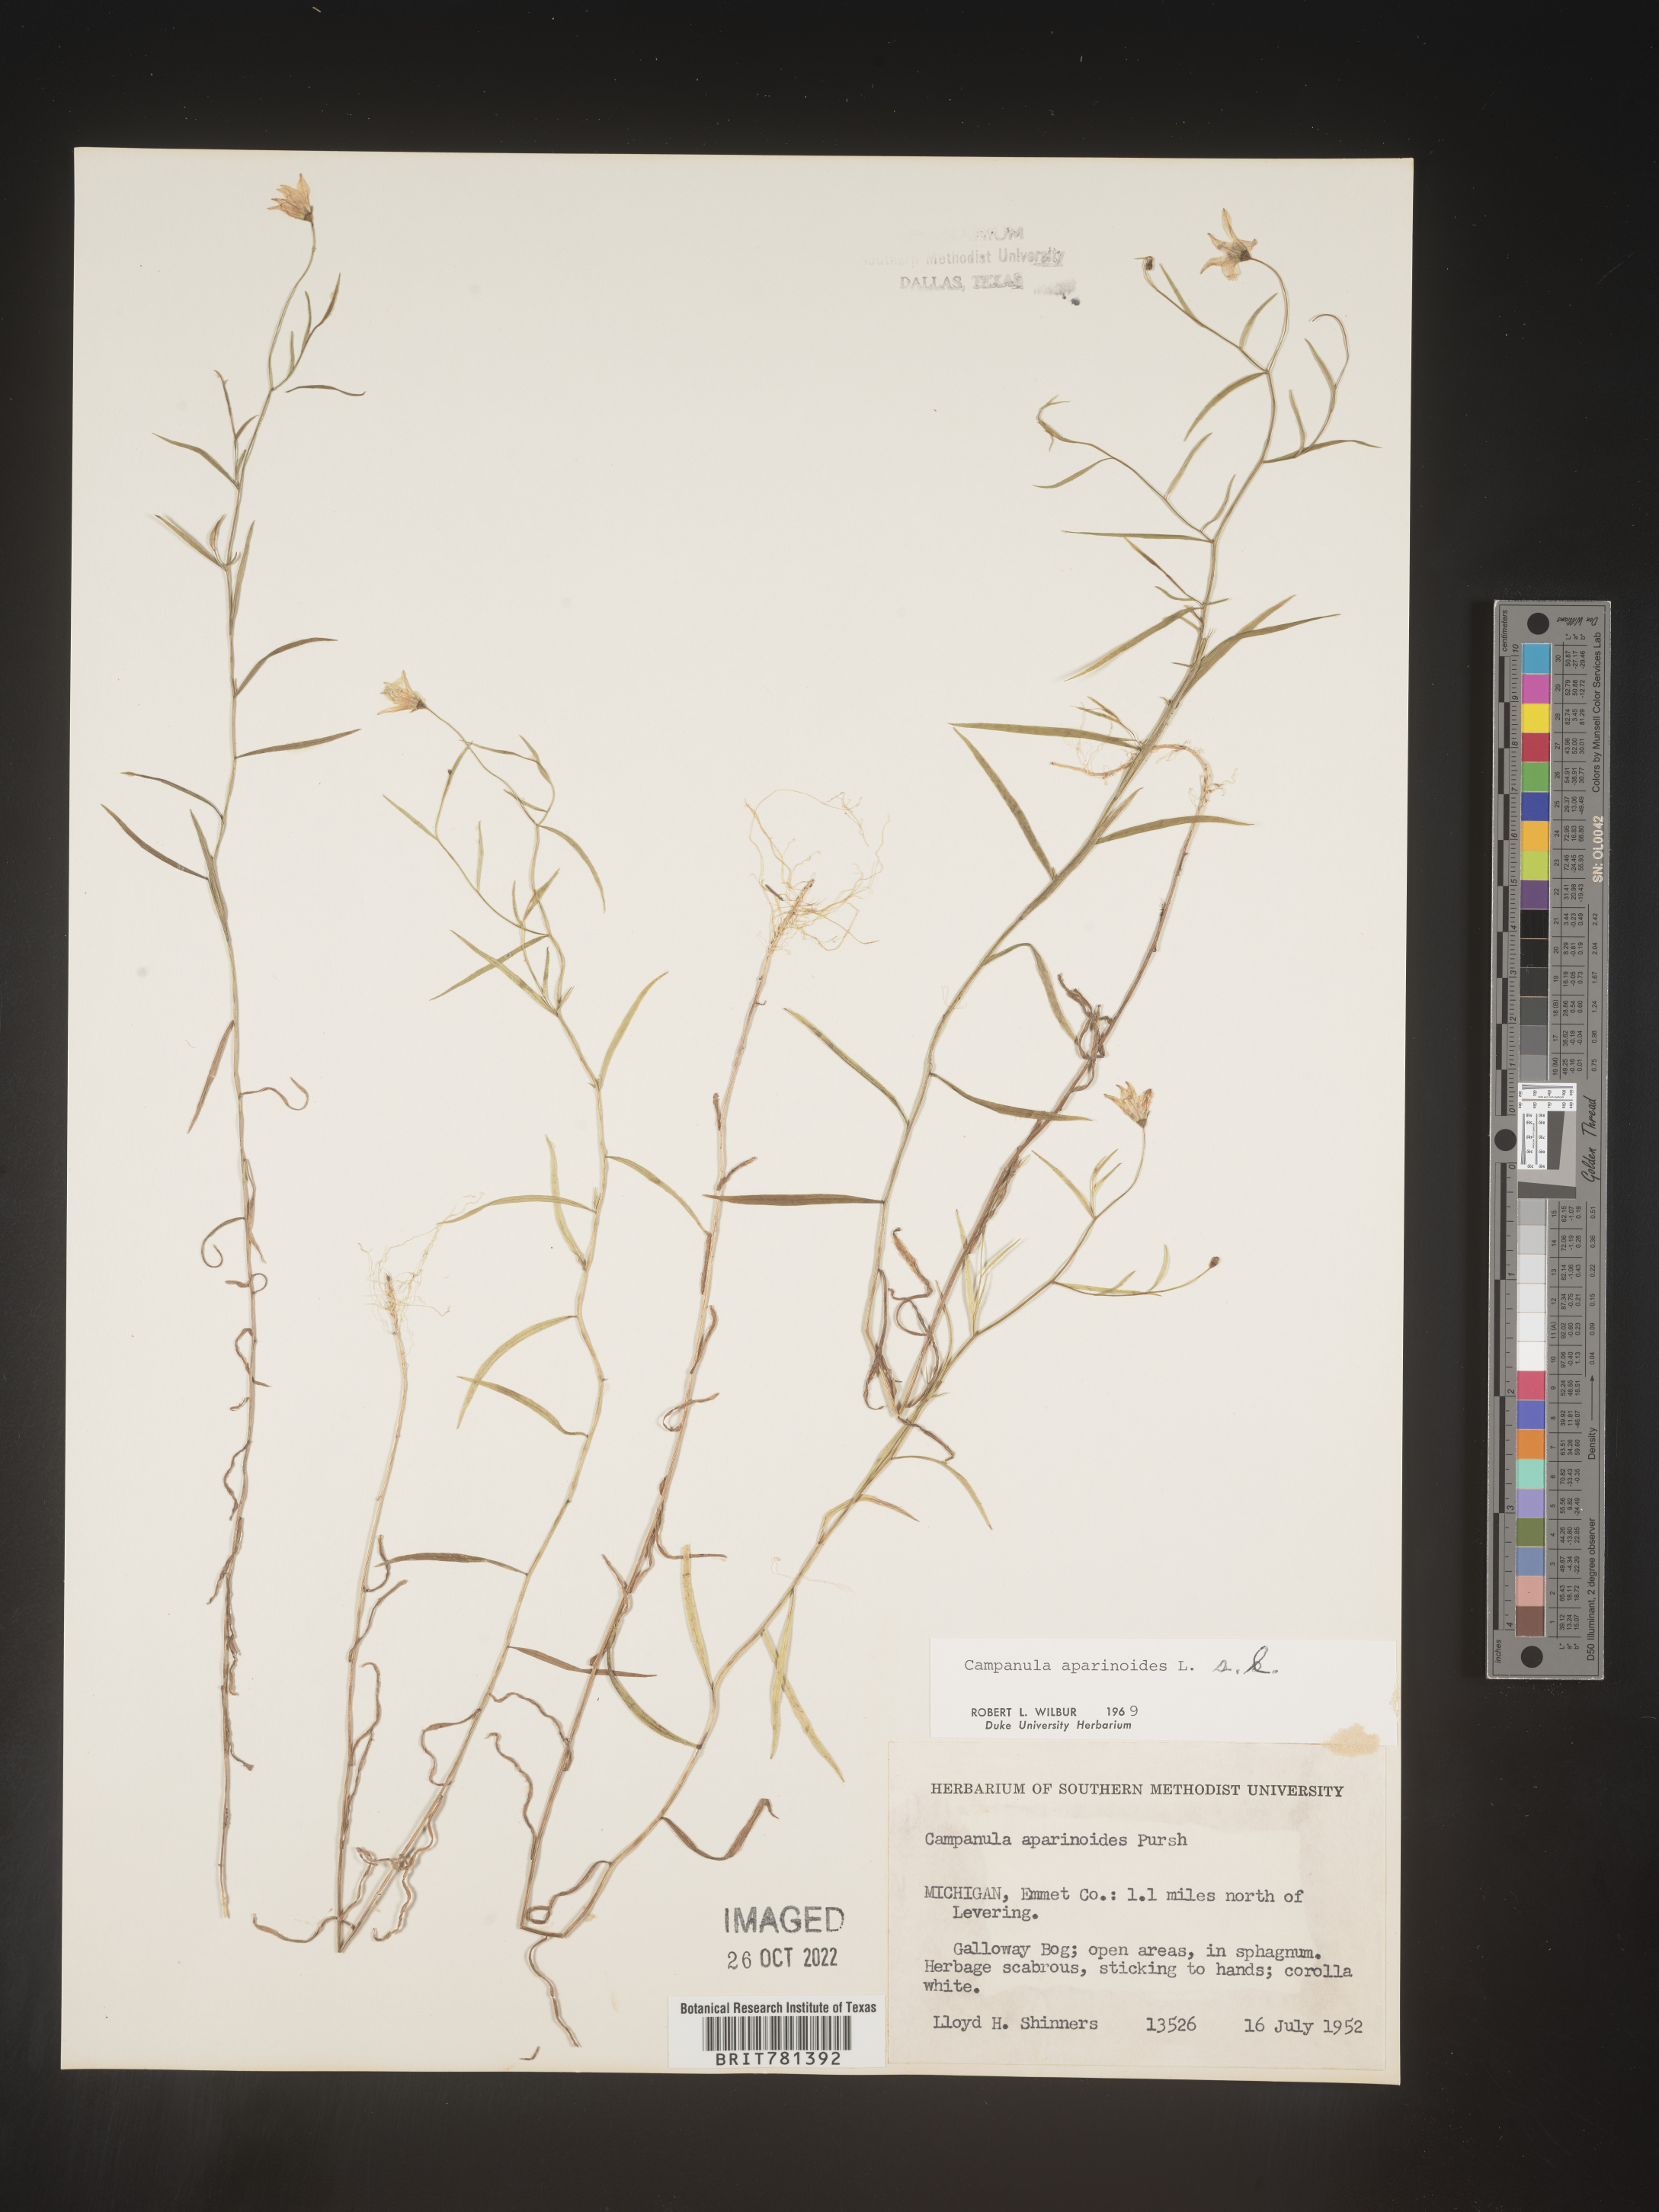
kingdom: Plantae
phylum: Tracheophyta
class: Magnoliopsida
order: Asterales
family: Campanulaceae
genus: Palustricodon
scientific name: Palustricodon aparinoides
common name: Bedstraw bellflower
